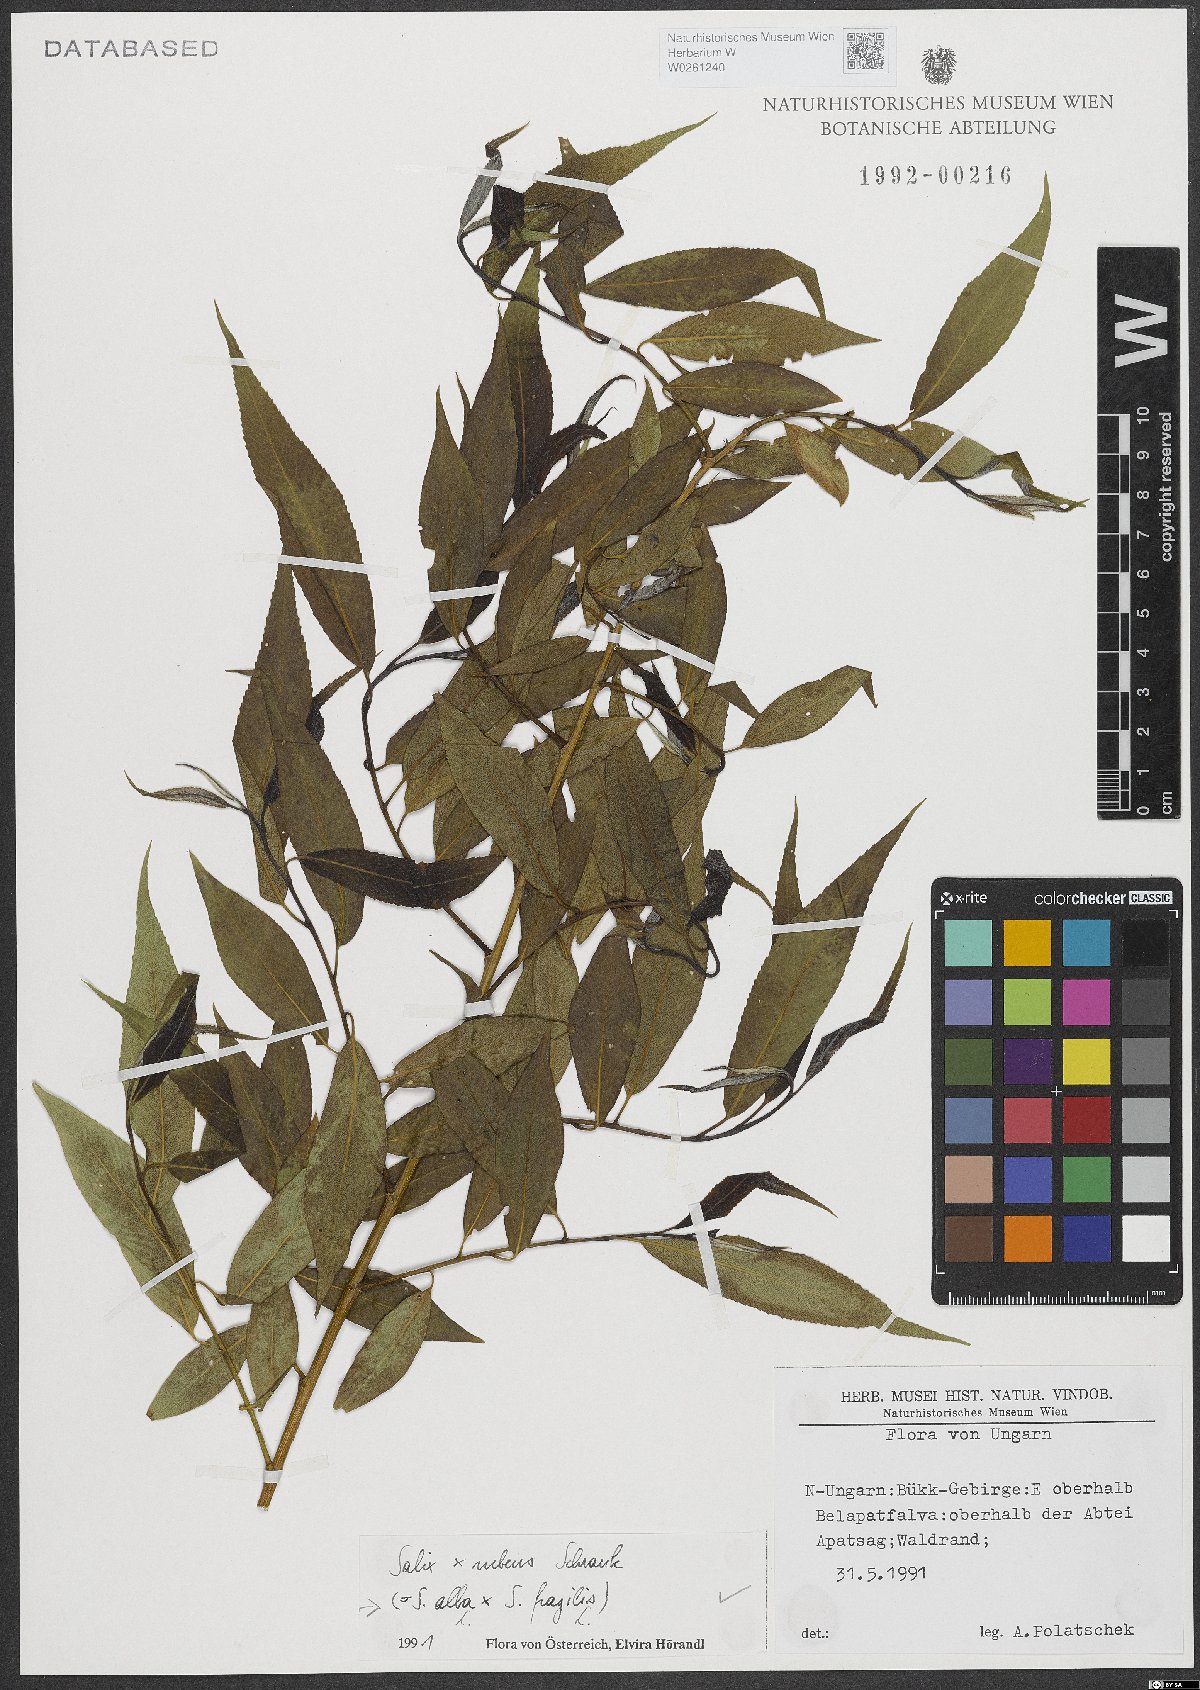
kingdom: Plantae
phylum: Tracheophyta
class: Magnoliopsida
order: Malpighiales
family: Salicaceae
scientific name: Salicaceae
